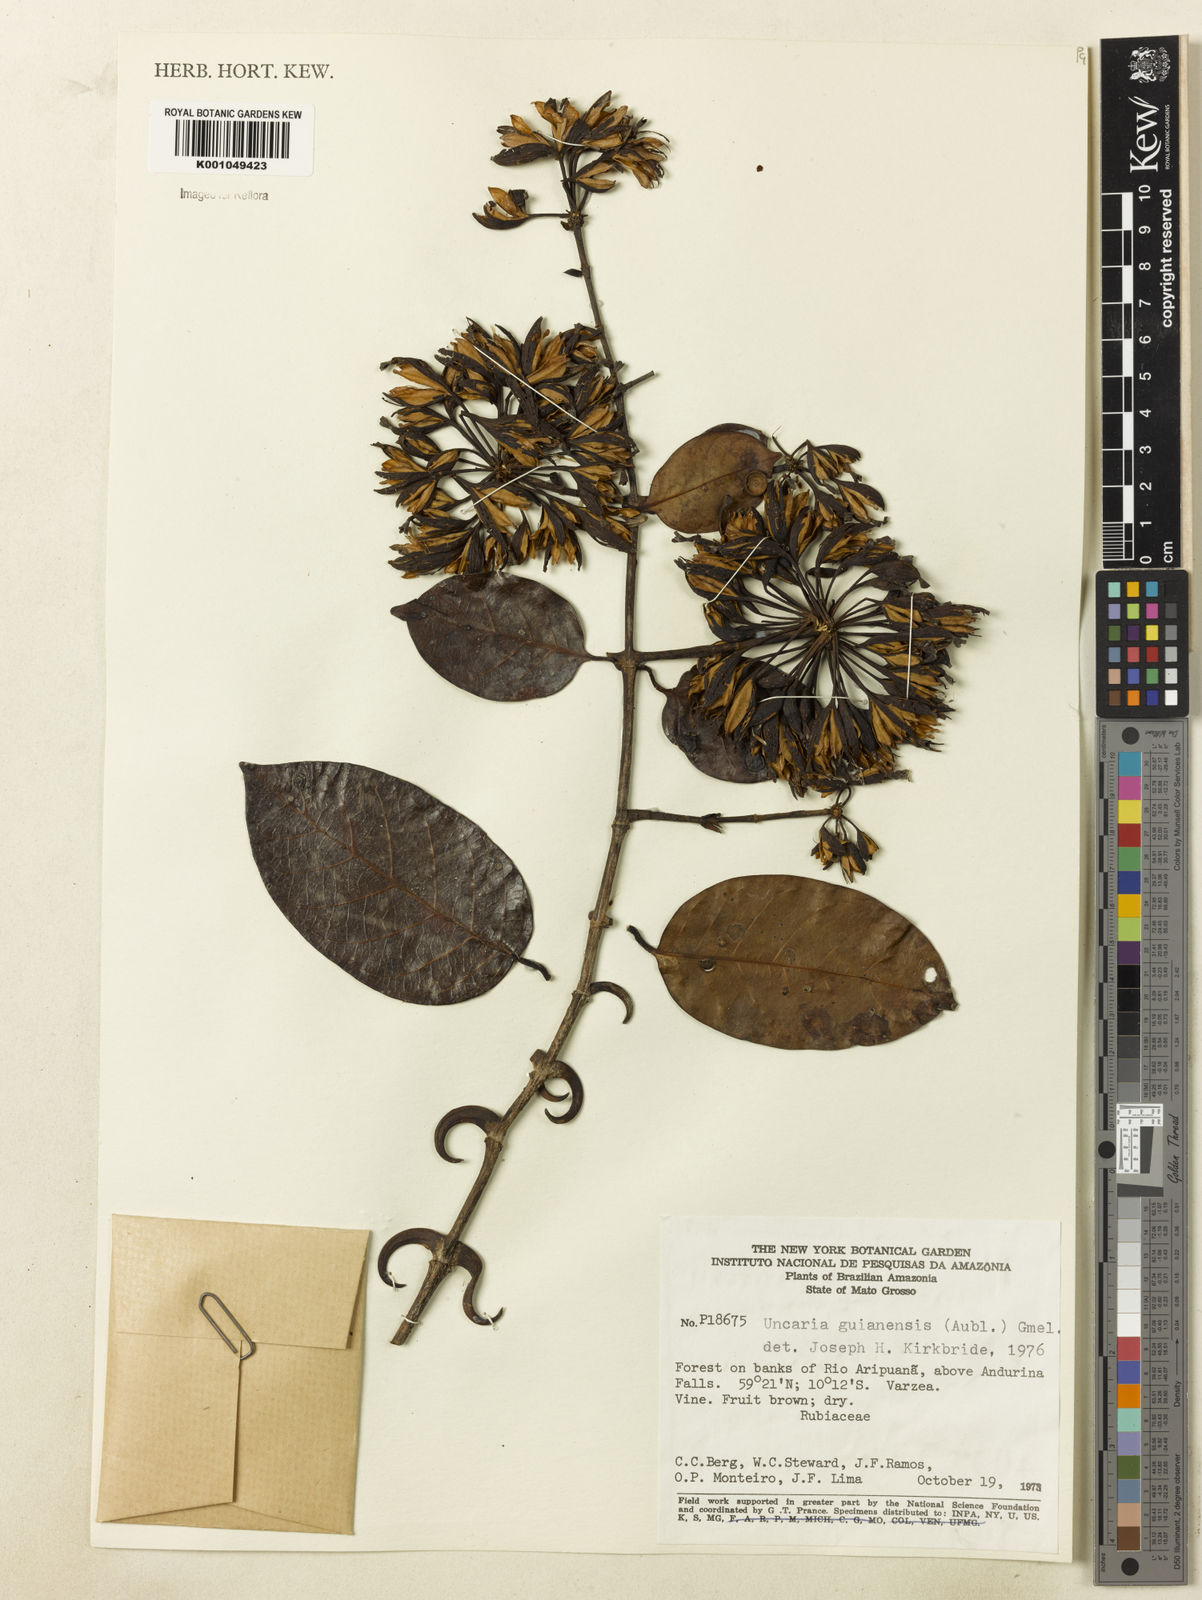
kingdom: Plantae
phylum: Tracheophyta
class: Magnoliopsida
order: Gentianales
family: Rubiaceae
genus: Uncaria
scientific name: Uncaria guianensis
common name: Cat's-claw
